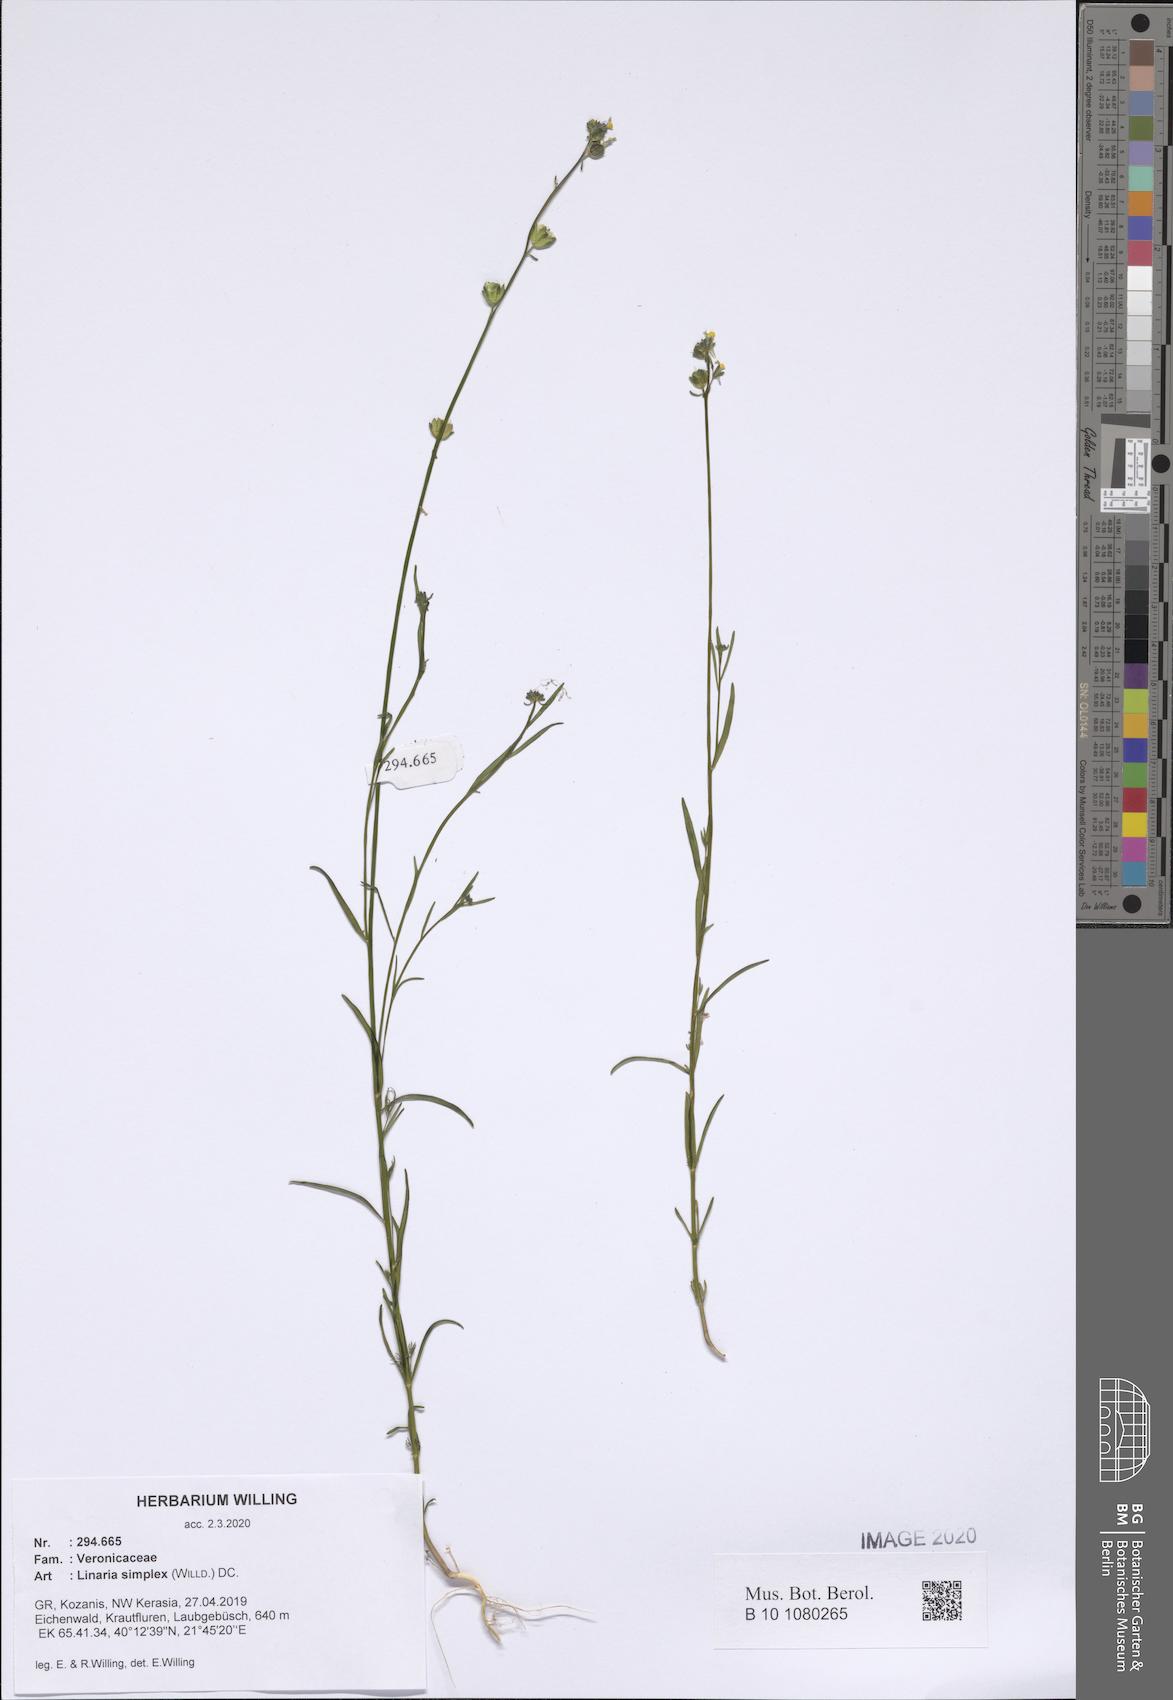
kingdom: Plantae
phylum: Tracheophyta
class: Magnoliopsida
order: Lamiales
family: Plantaginaceae
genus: Linaria
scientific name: Linaria simplex
